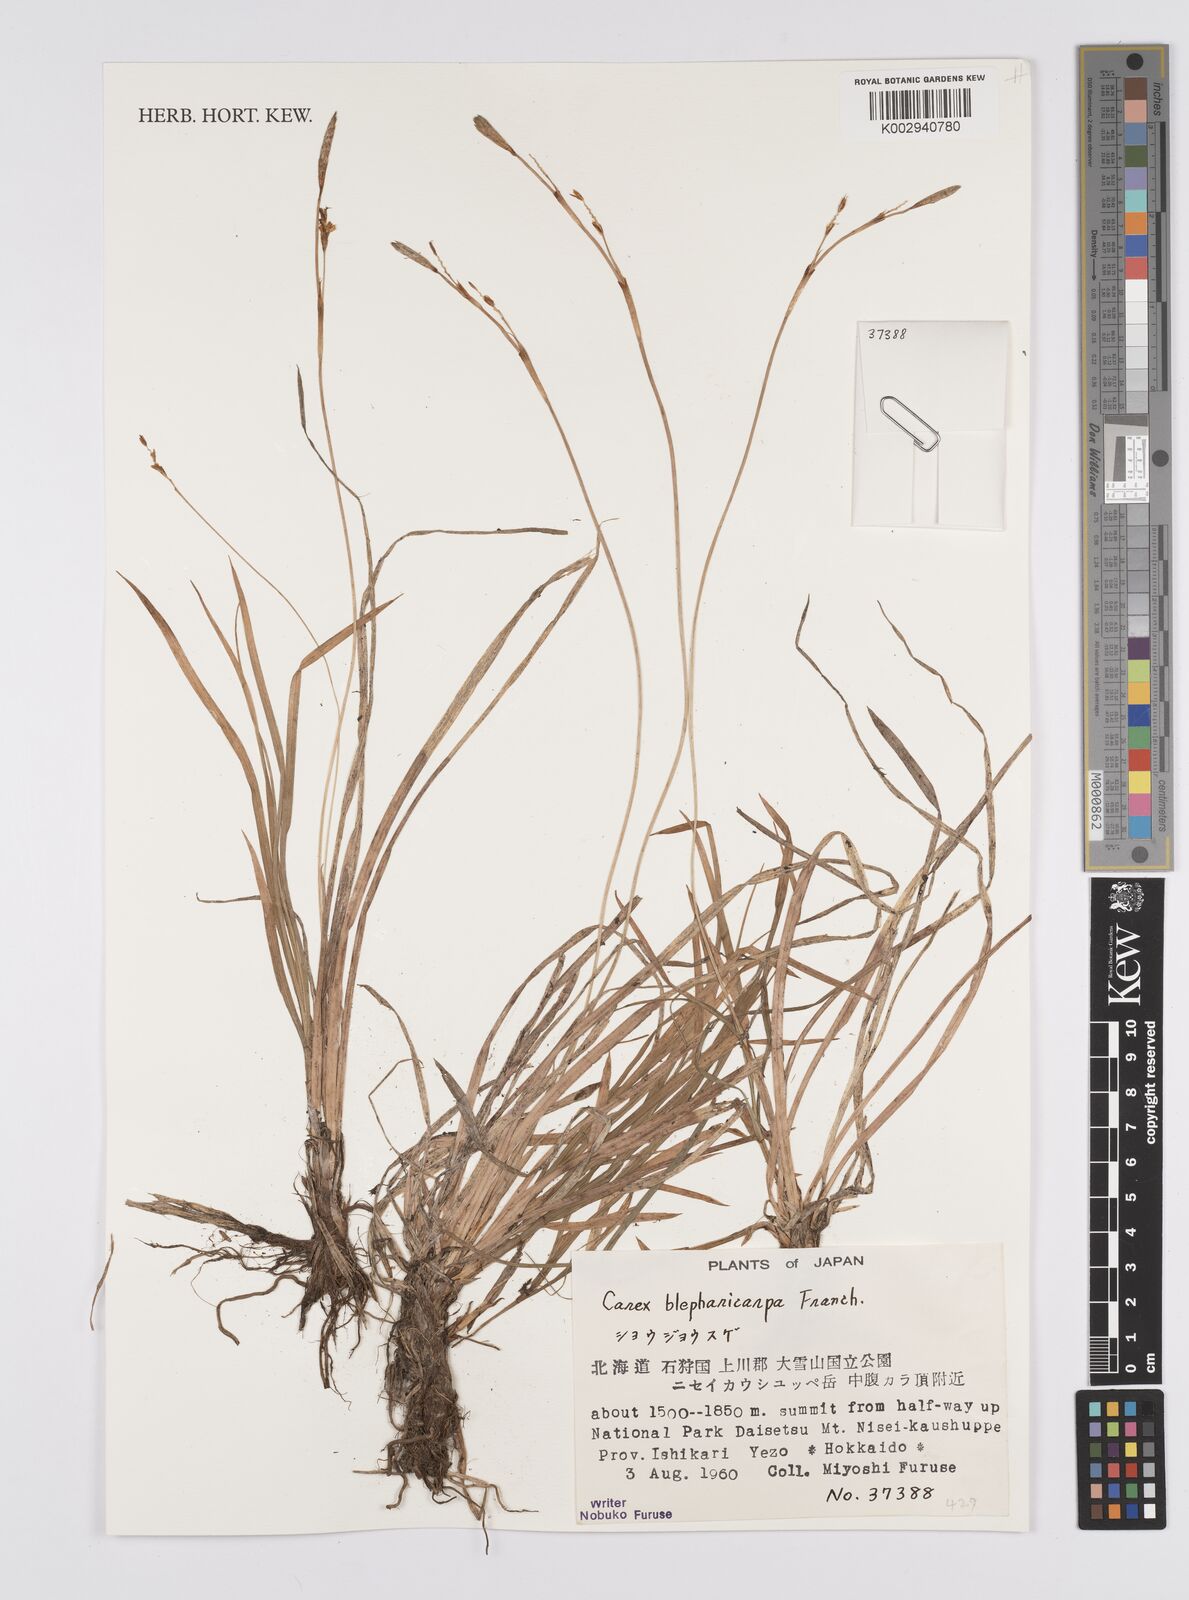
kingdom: Plantae
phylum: Tracheophyta
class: Liliopsida
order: Poales
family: Cyperaceae
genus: Carex
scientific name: Carex blepharicarpa
